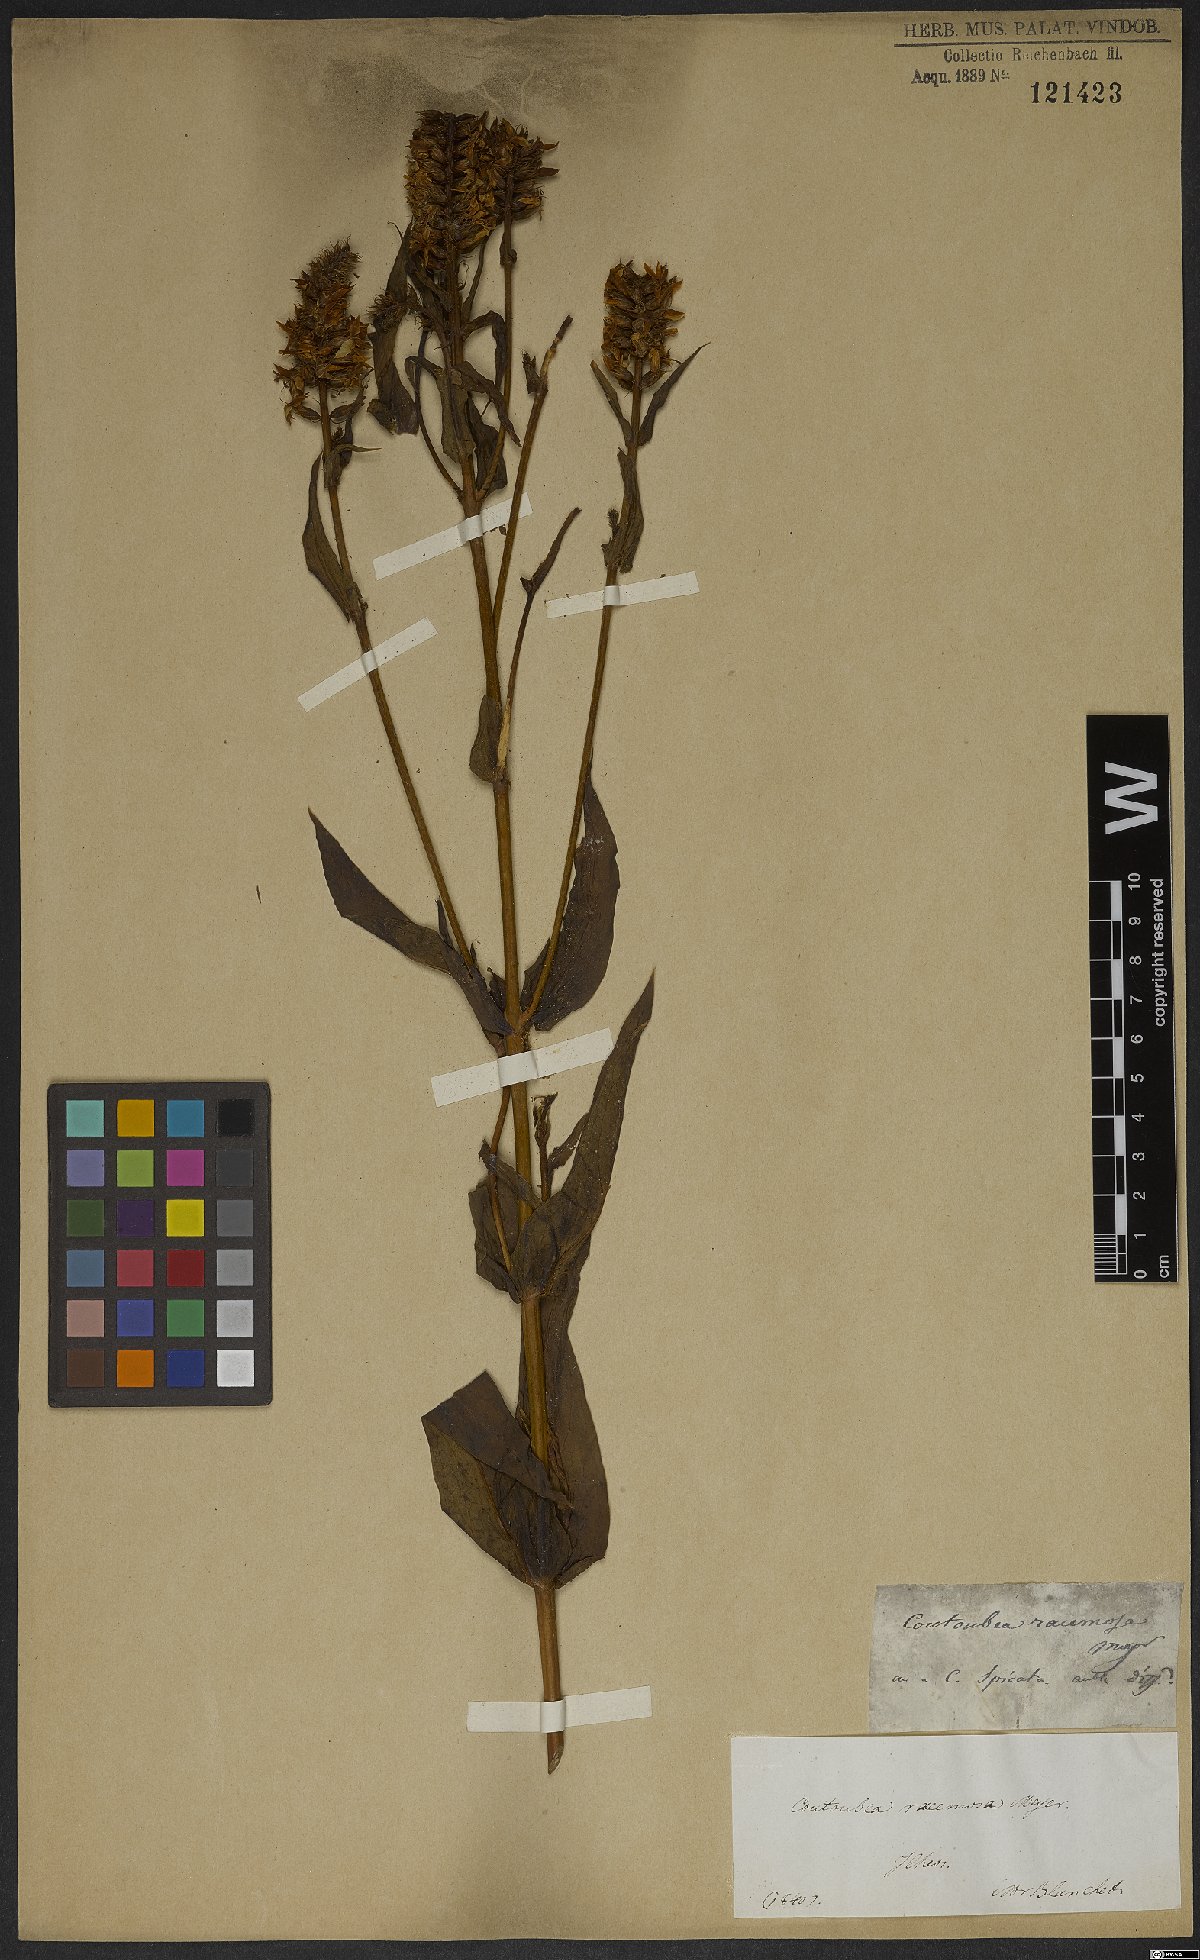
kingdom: Plantae
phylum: Tracheophyta
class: Magnoliopsida
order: Gentianales
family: Gentianaceae
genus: Coutoubea
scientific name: Coutoubea ramosa
